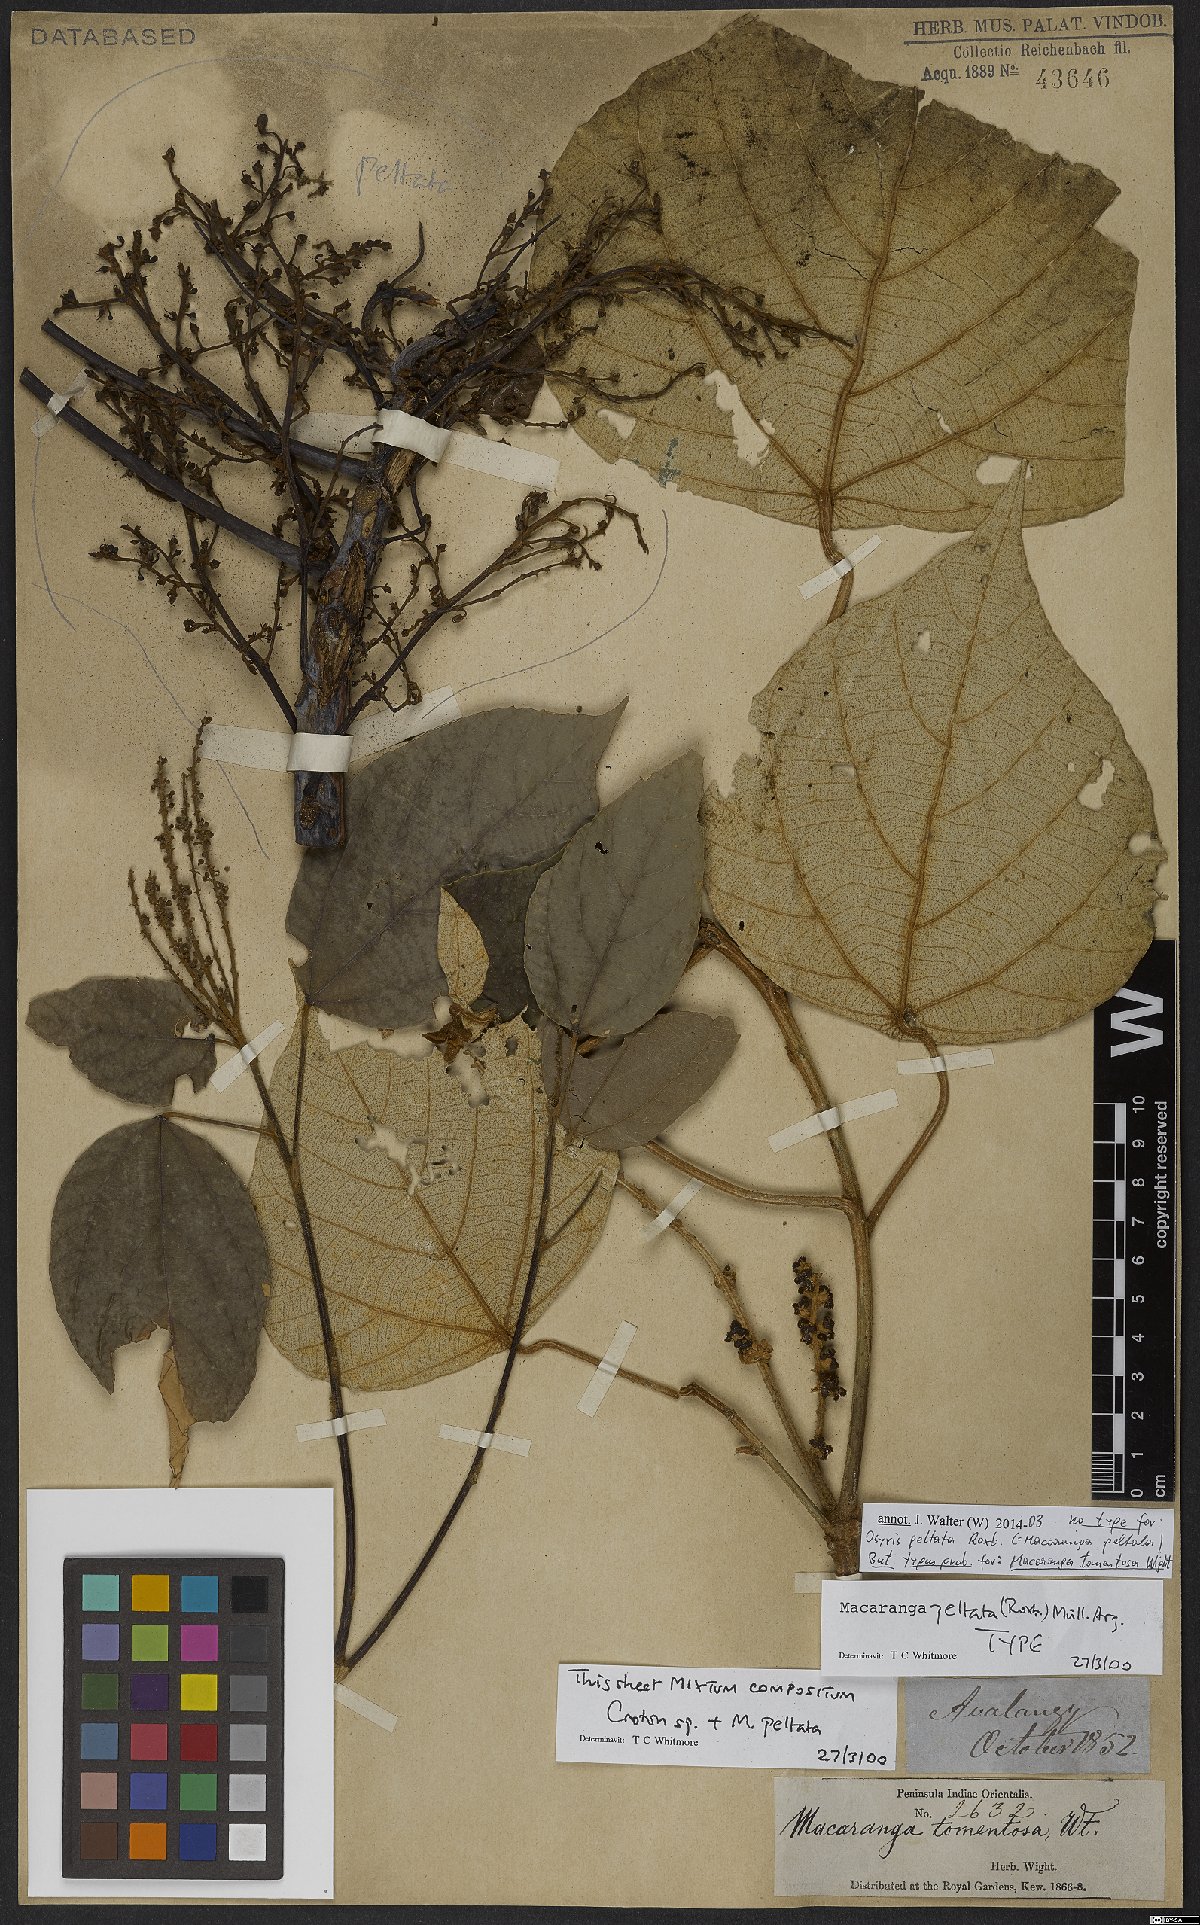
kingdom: Plantae
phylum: Tracheophyta
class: Magnoliopsida
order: Malpighiales
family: Euphorbiaceae
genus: Macaranga
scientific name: Macaranga peltata
